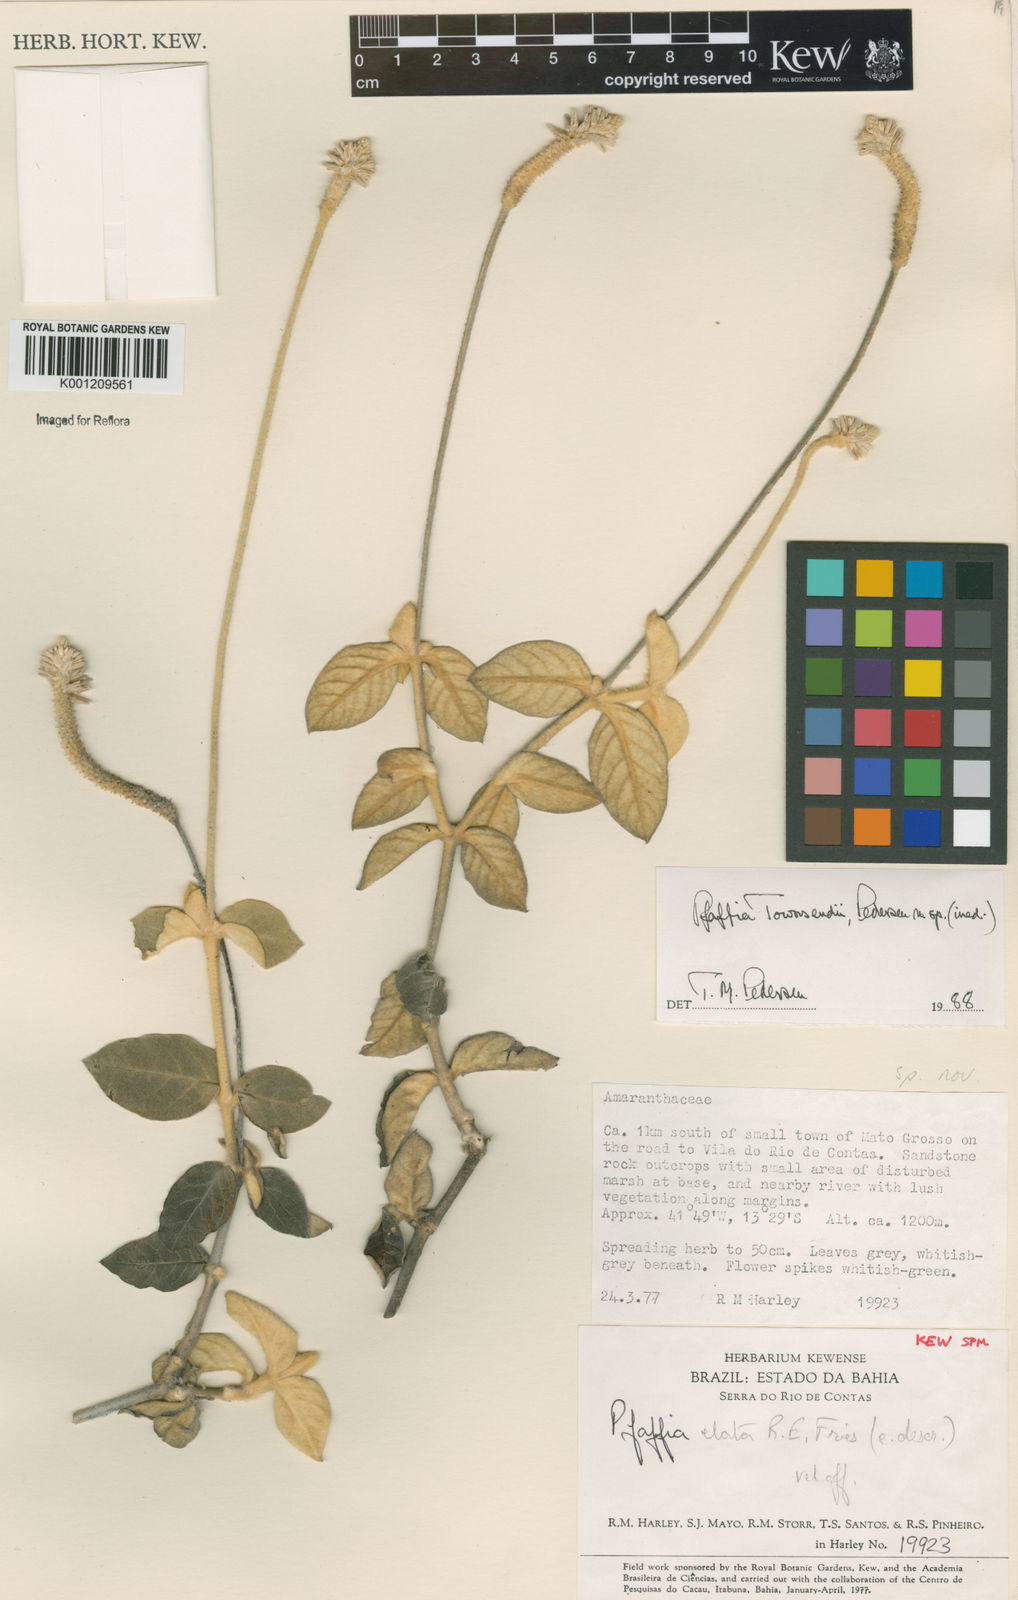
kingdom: Plantae
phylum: Tracheophyta
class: Magnoliopsida
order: Caryophyllales
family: Amaranthaceae
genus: Pfaffia
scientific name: Pfaffia townsendii
